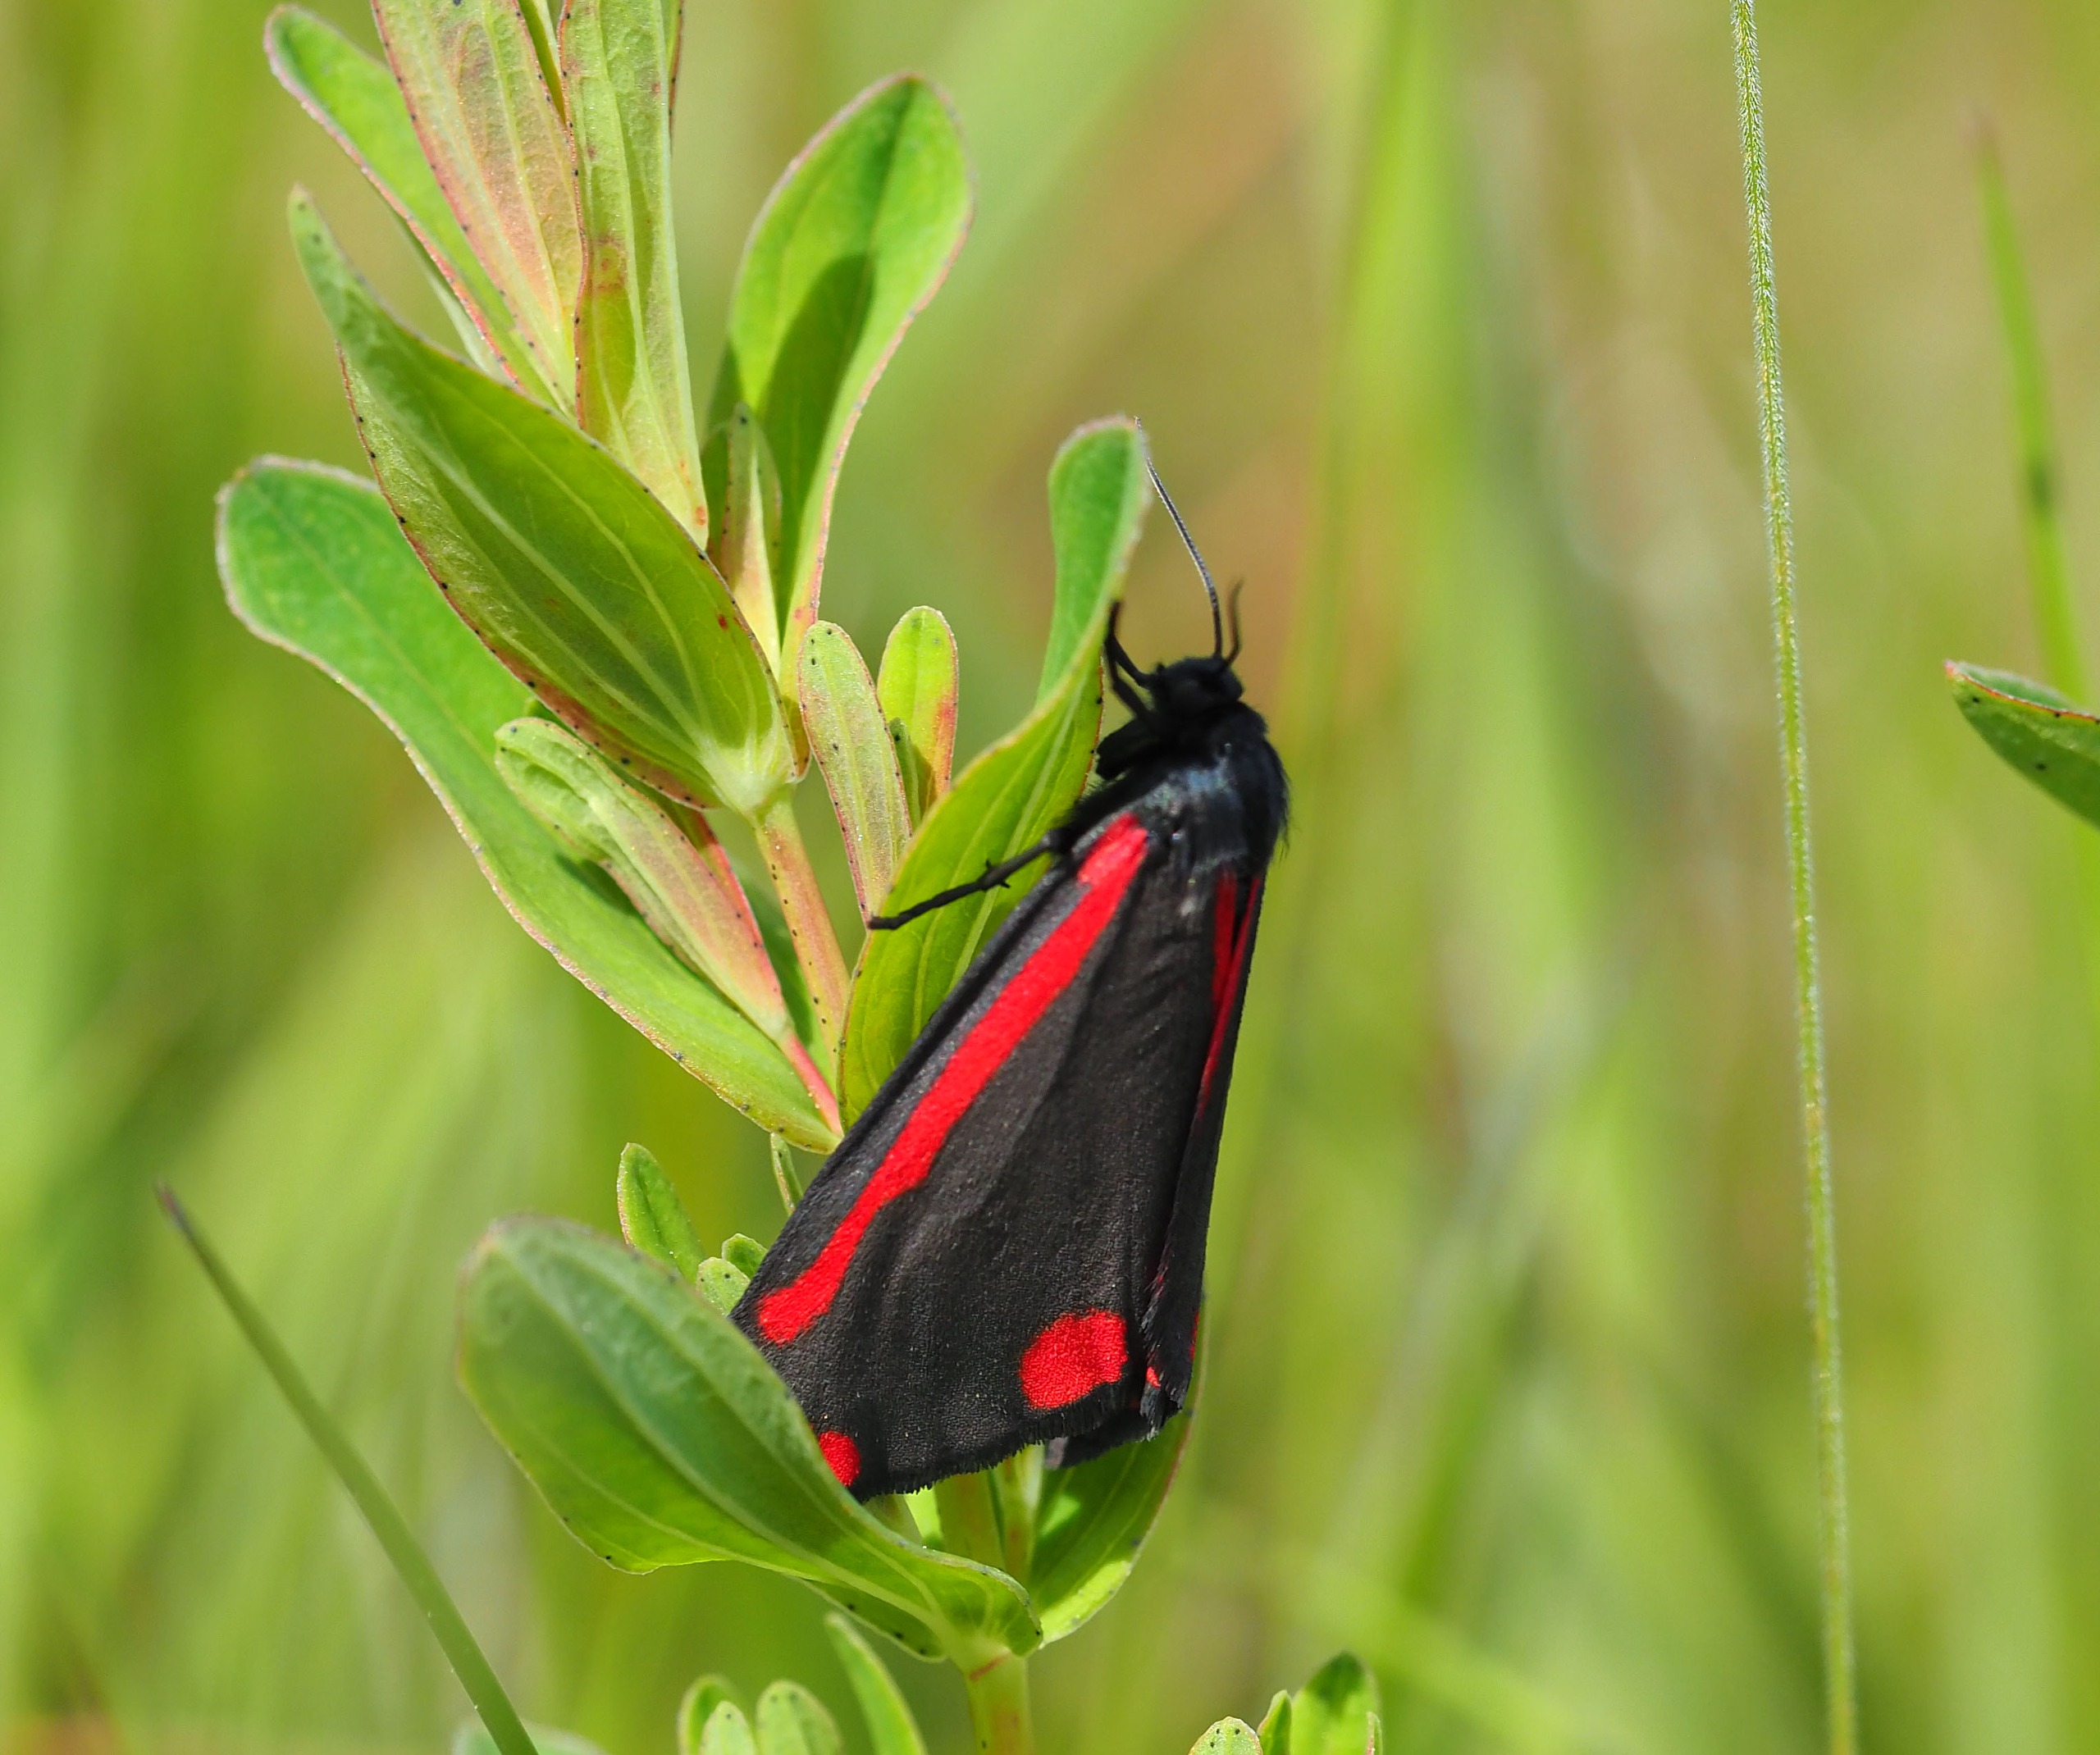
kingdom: Animalia
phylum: Arthropoda
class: Insecta
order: Lepidoptera
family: Erebidae
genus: Tyria
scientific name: Tyria jacobaeae
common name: Blodplet
